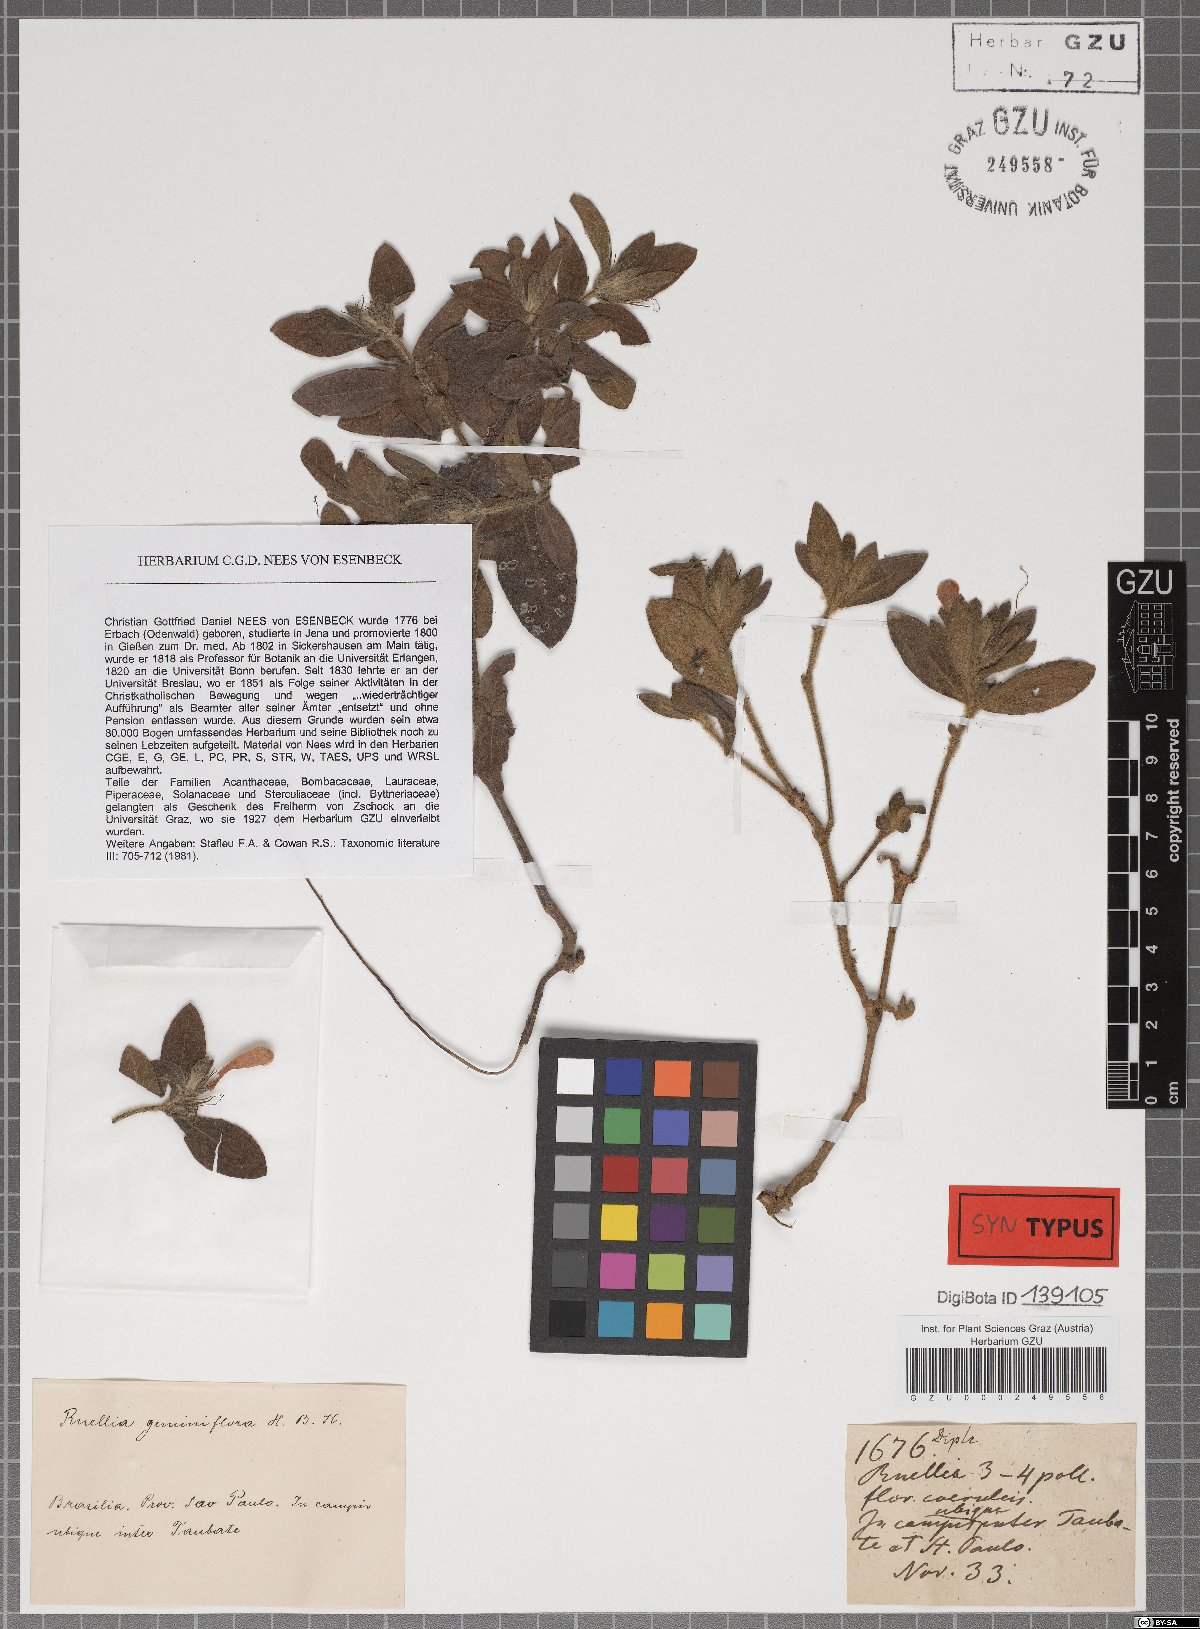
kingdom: Plantae
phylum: Tracheophyta
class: Magnoliopsida
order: Lamiales
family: Acanthaceae
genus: Ruellia
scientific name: Ruellia geminiflora
